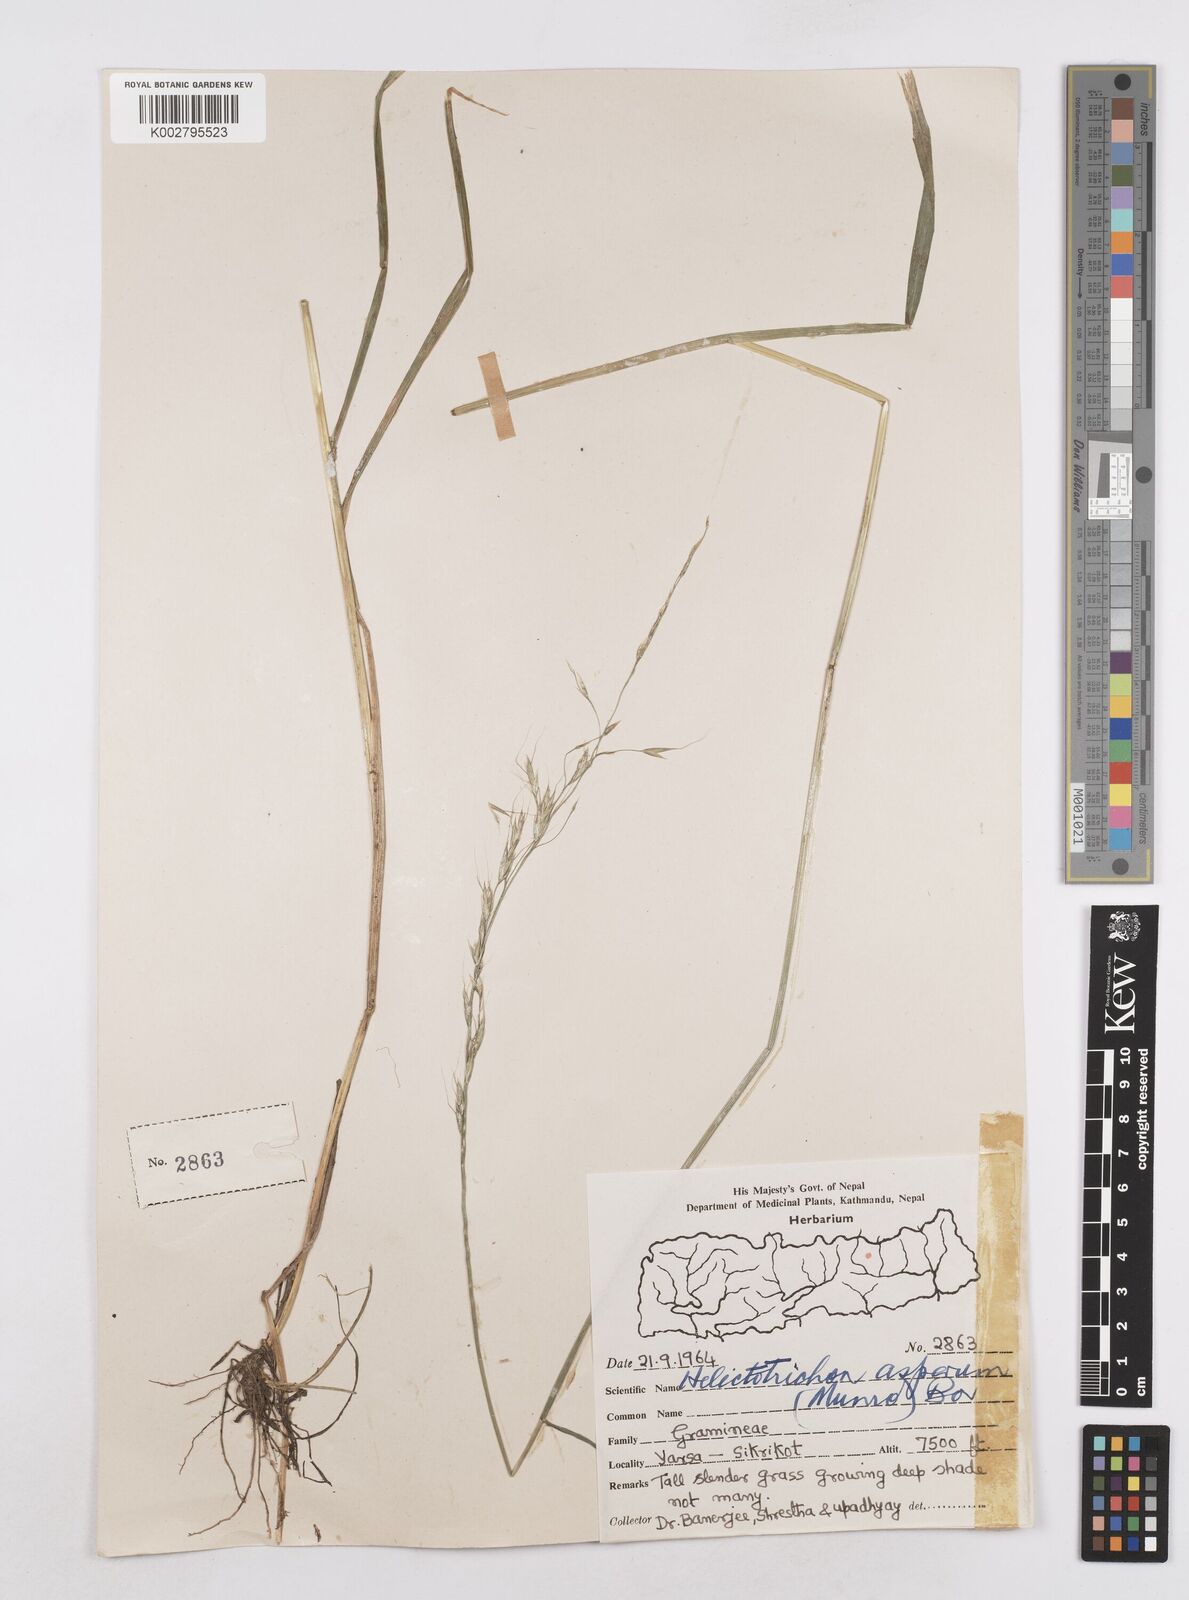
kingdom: Plantae
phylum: Tracheophyta
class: Liliopsida
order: Poales
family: Poaceae
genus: Trisetopsis
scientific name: Trisetopsis junghuhnii
